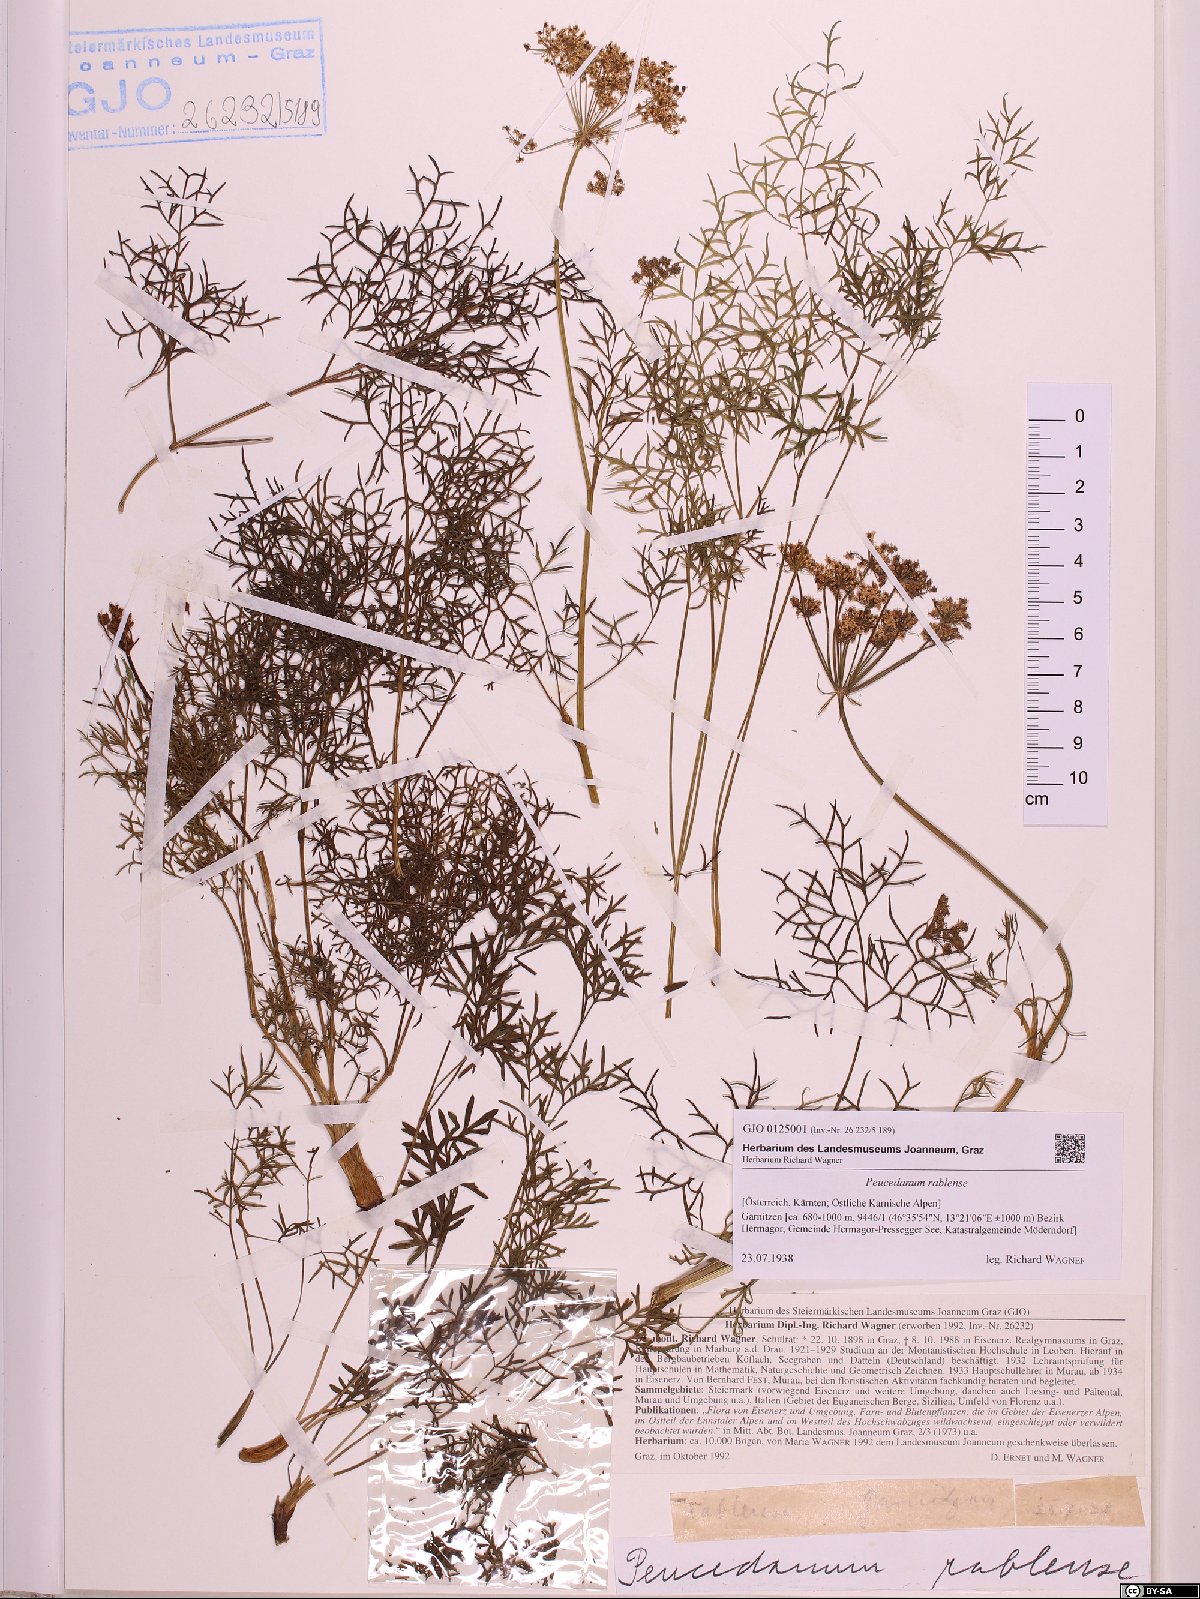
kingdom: Plantae
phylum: Tracheophyta
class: Magnoliopsida
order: Apiales
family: Apiaceae
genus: Peucedanum
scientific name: Peucedanum rablense
